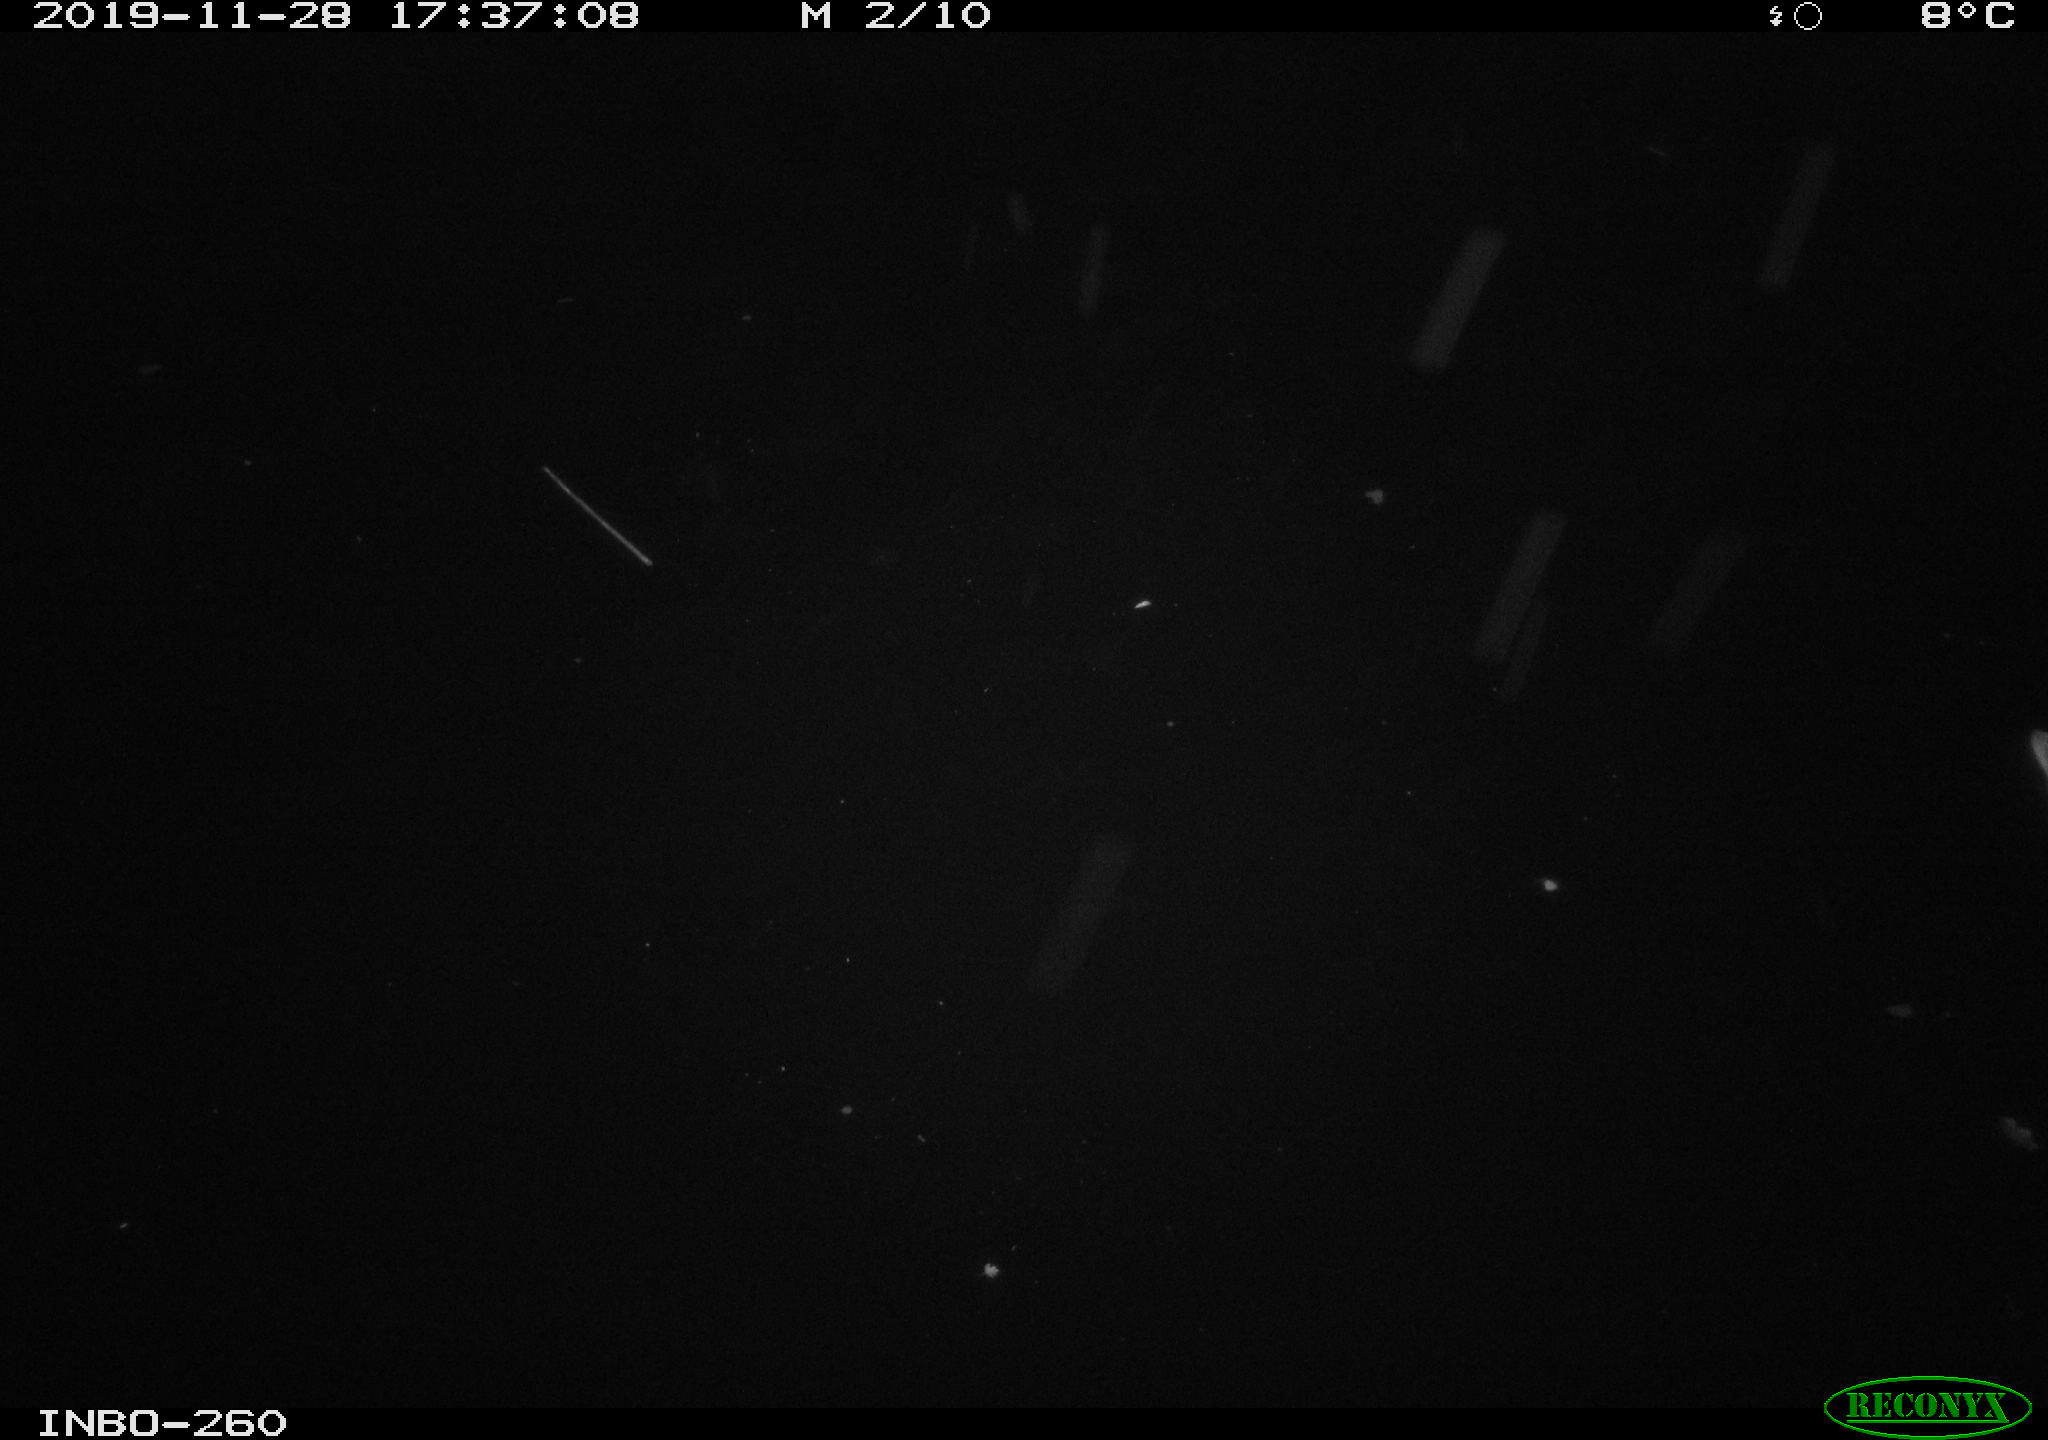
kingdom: Animalia
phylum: Chordata
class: Aves
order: Anseriformes
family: Anatidae
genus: Anas
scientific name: Anas platyrhynchos
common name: Mallard
